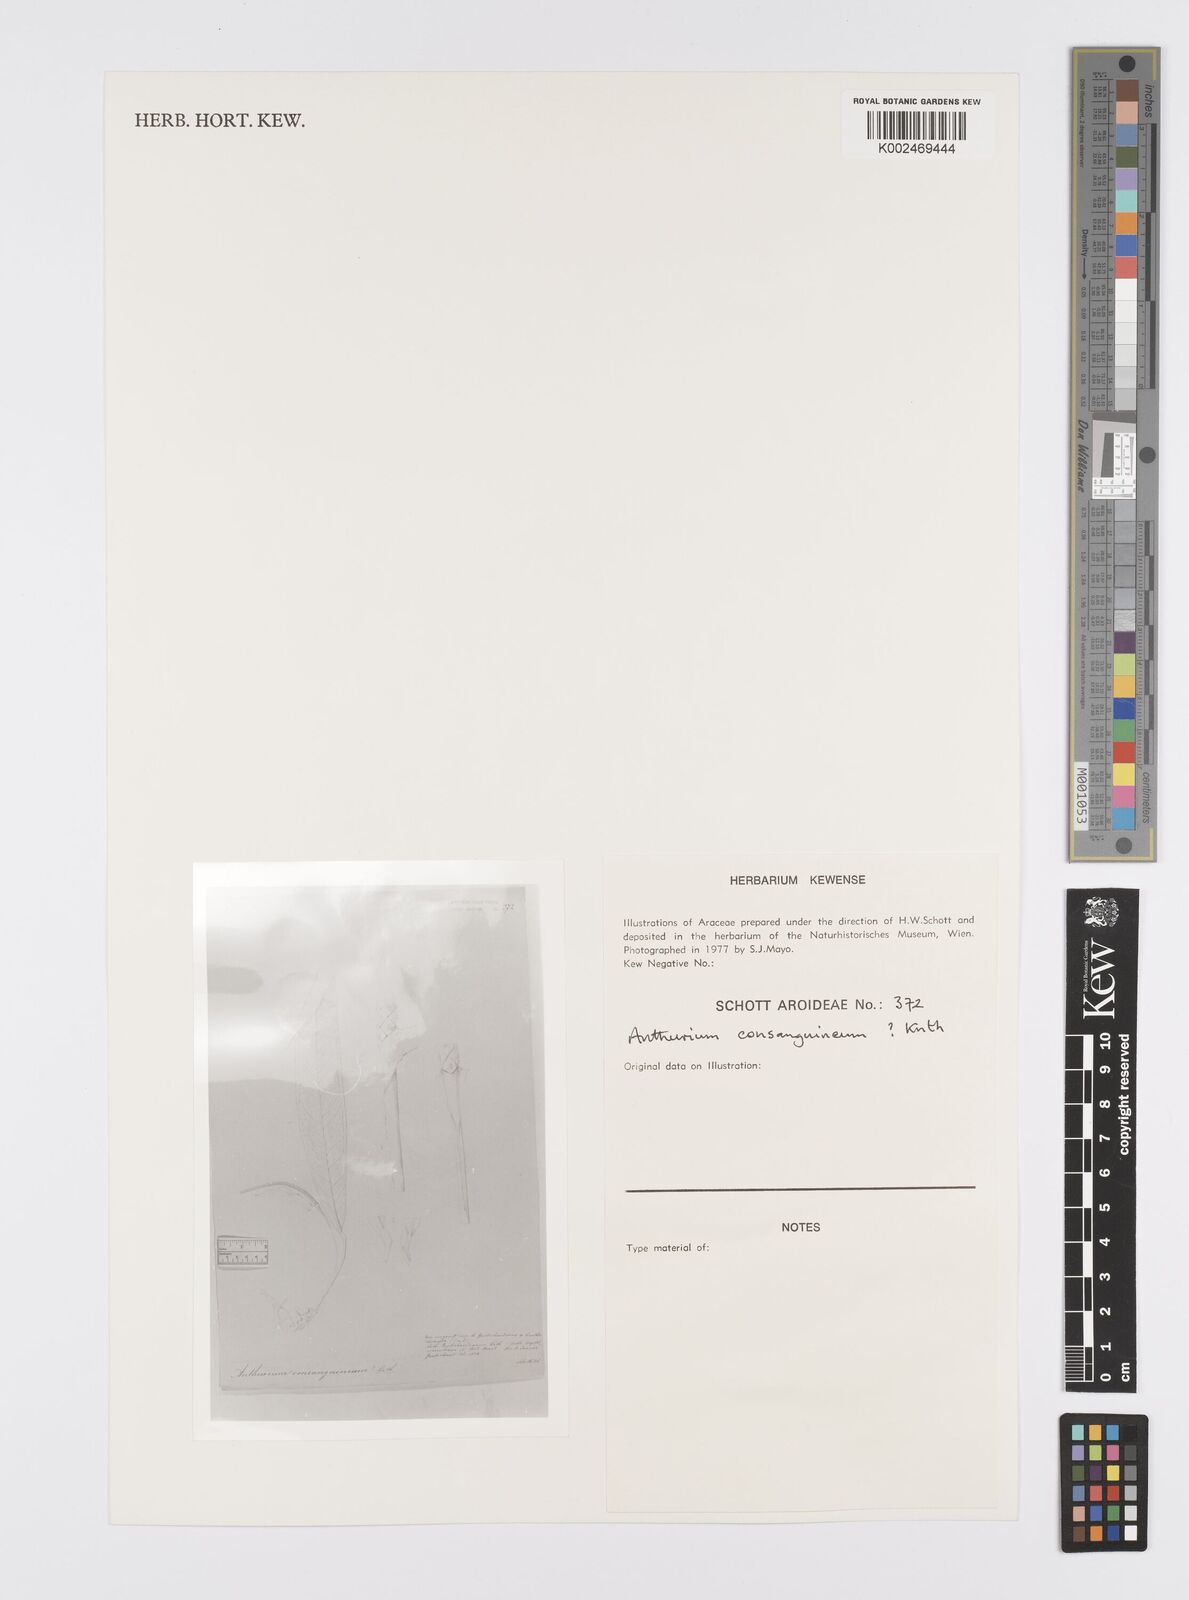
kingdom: Plantae
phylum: Tracheophyta
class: Liliopsida
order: Alismatales
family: Araceae
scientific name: Araceae
